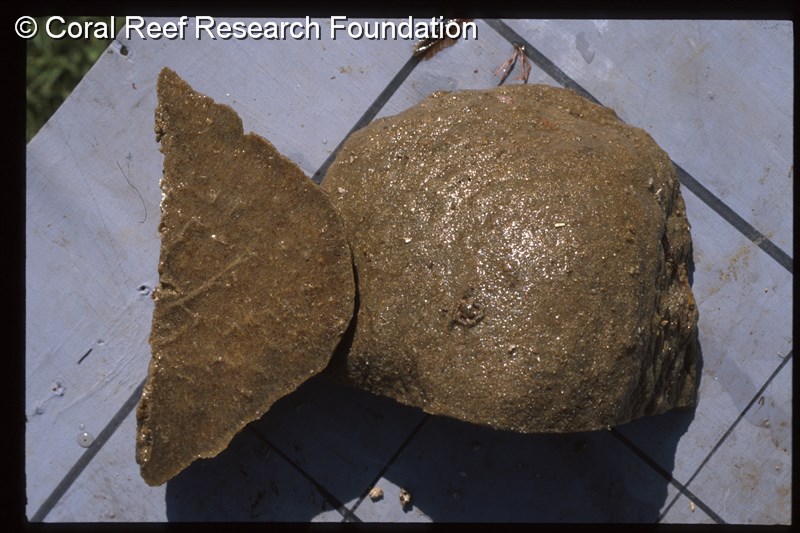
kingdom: Animalia
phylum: Chordata
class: Ascidiacea
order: Aplousobranchia
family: Polyclinidae
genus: Aplidium
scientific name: Aplidium
